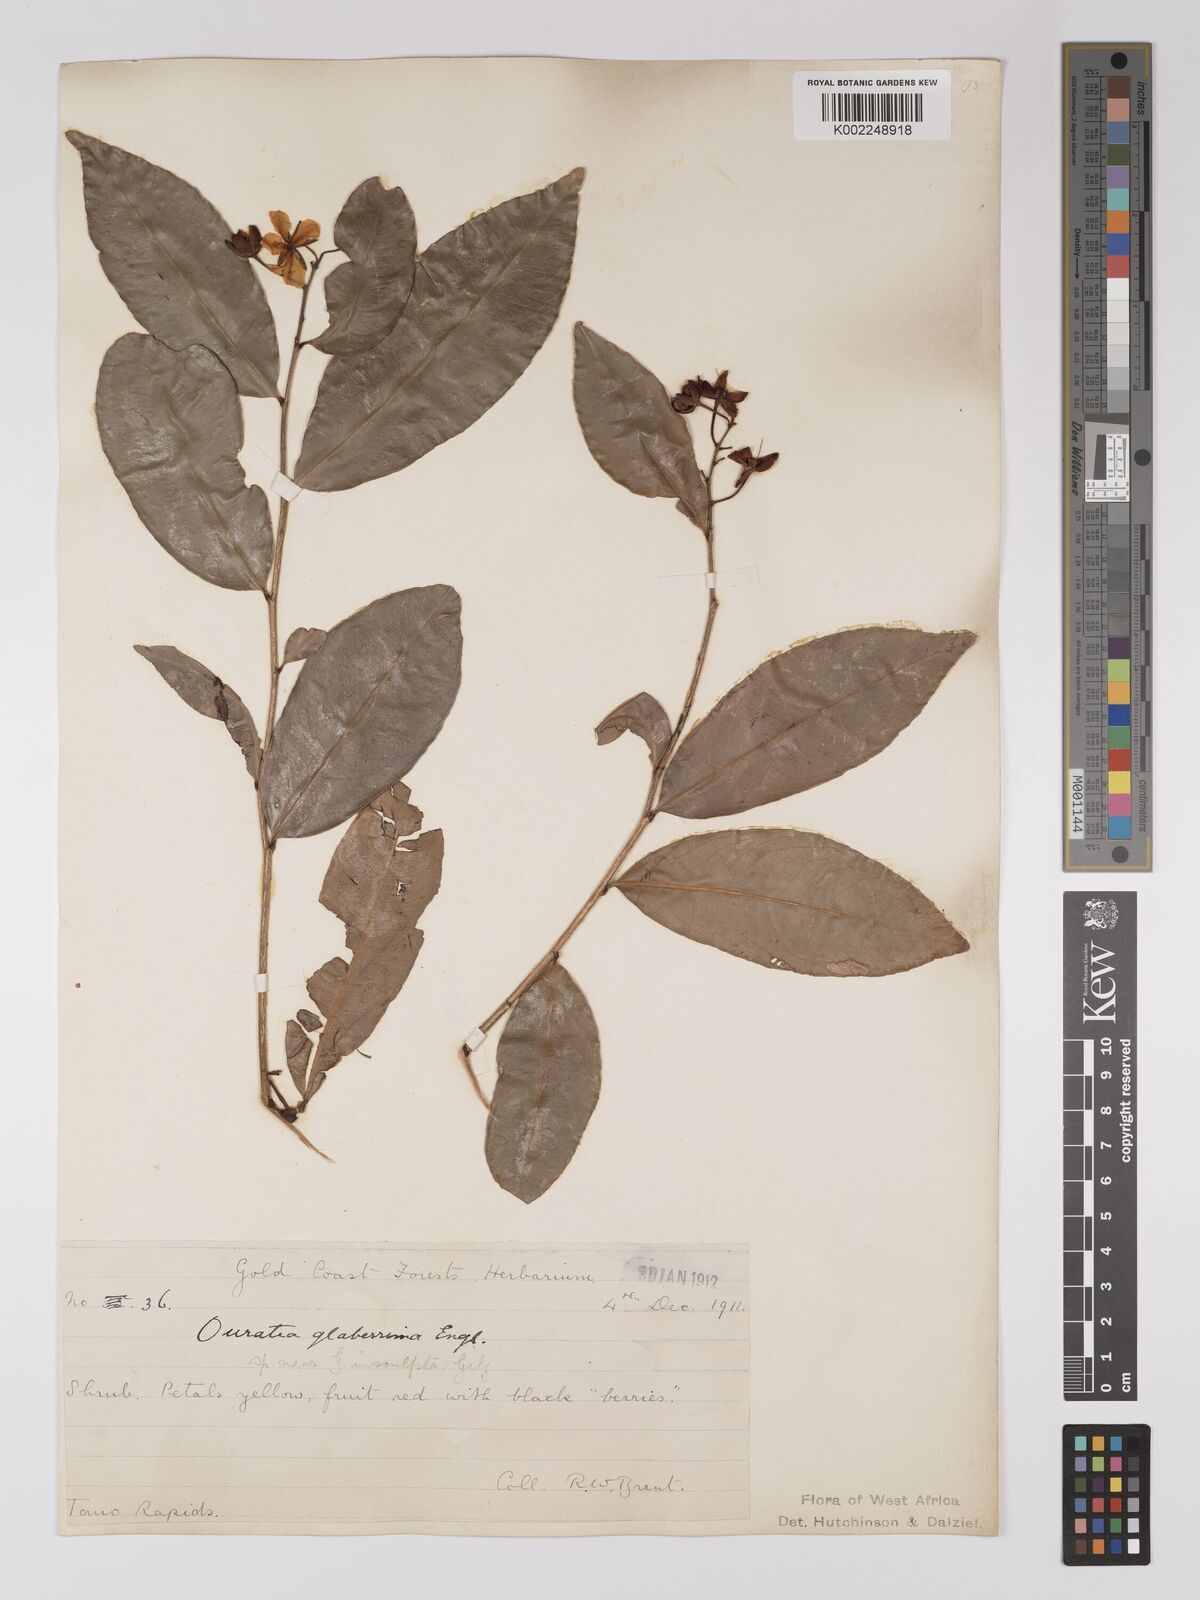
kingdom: Plantae
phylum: Tracheophyta
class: Magnoliopsida
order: Malpighiales
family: Ochnaceae
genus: Campylospermum
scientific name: Campylospermum glaberrimum
